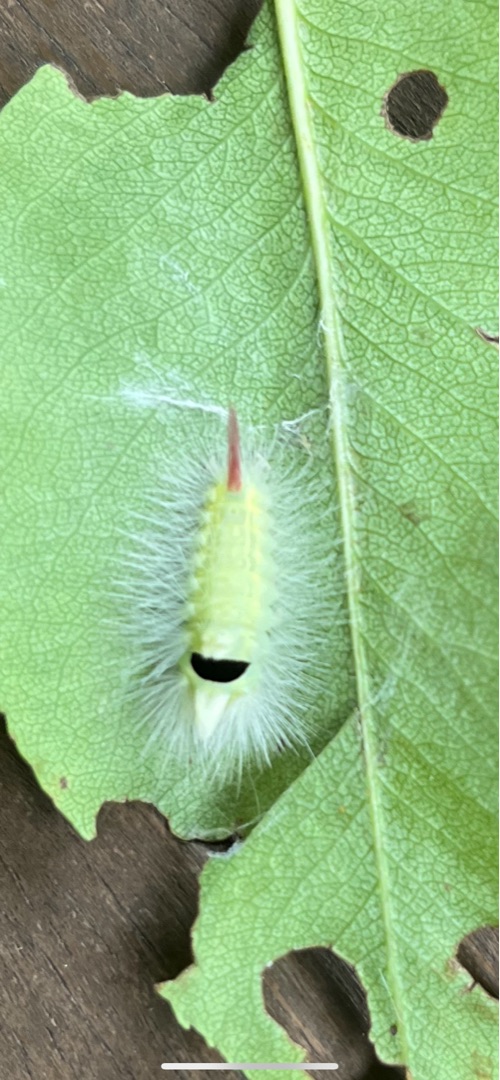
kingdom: Animalia
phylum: Arthropoda
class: Insecta
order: Lepidoptera
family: Erebidae
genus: Calliteara
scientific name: Calliteara pudibunda
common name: Bøgenonne
